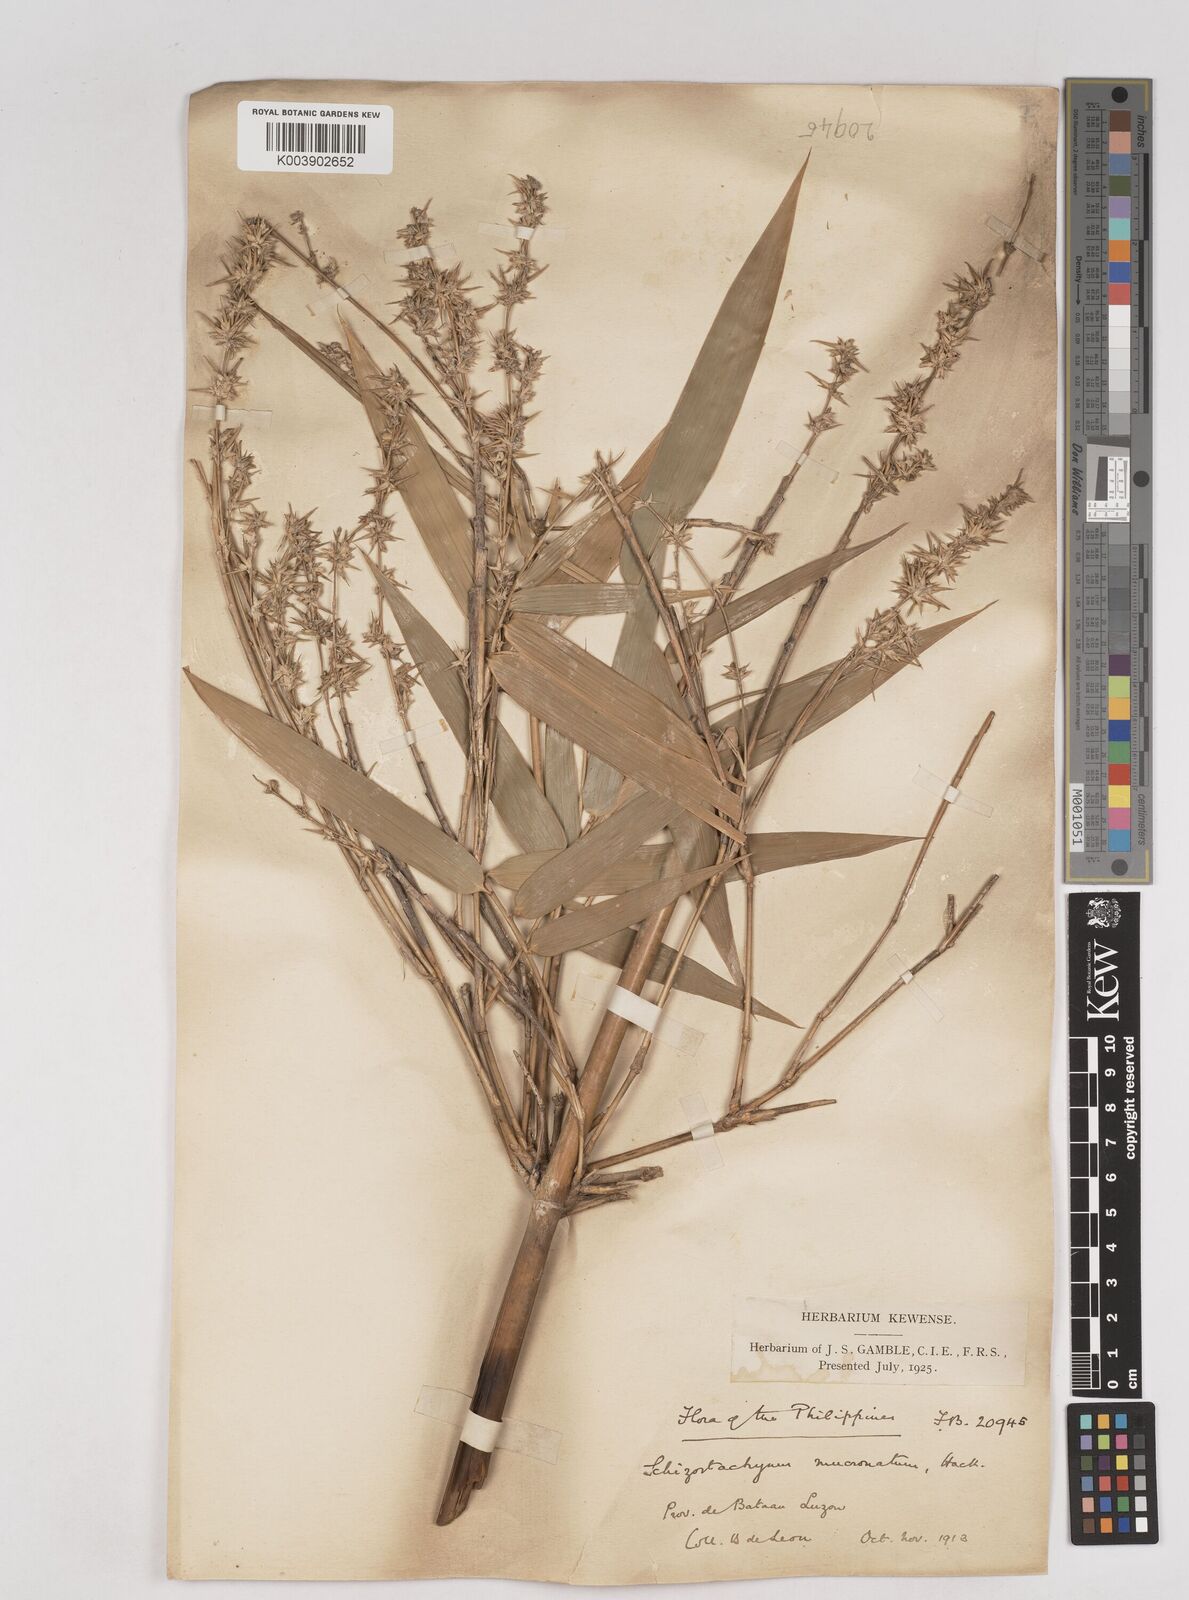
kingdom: Plantae
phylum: Tracheophyta
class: Liliopsida
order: Poales
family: Poaceae
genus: Schizostachyum
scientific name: Schizostachyum lumampao
